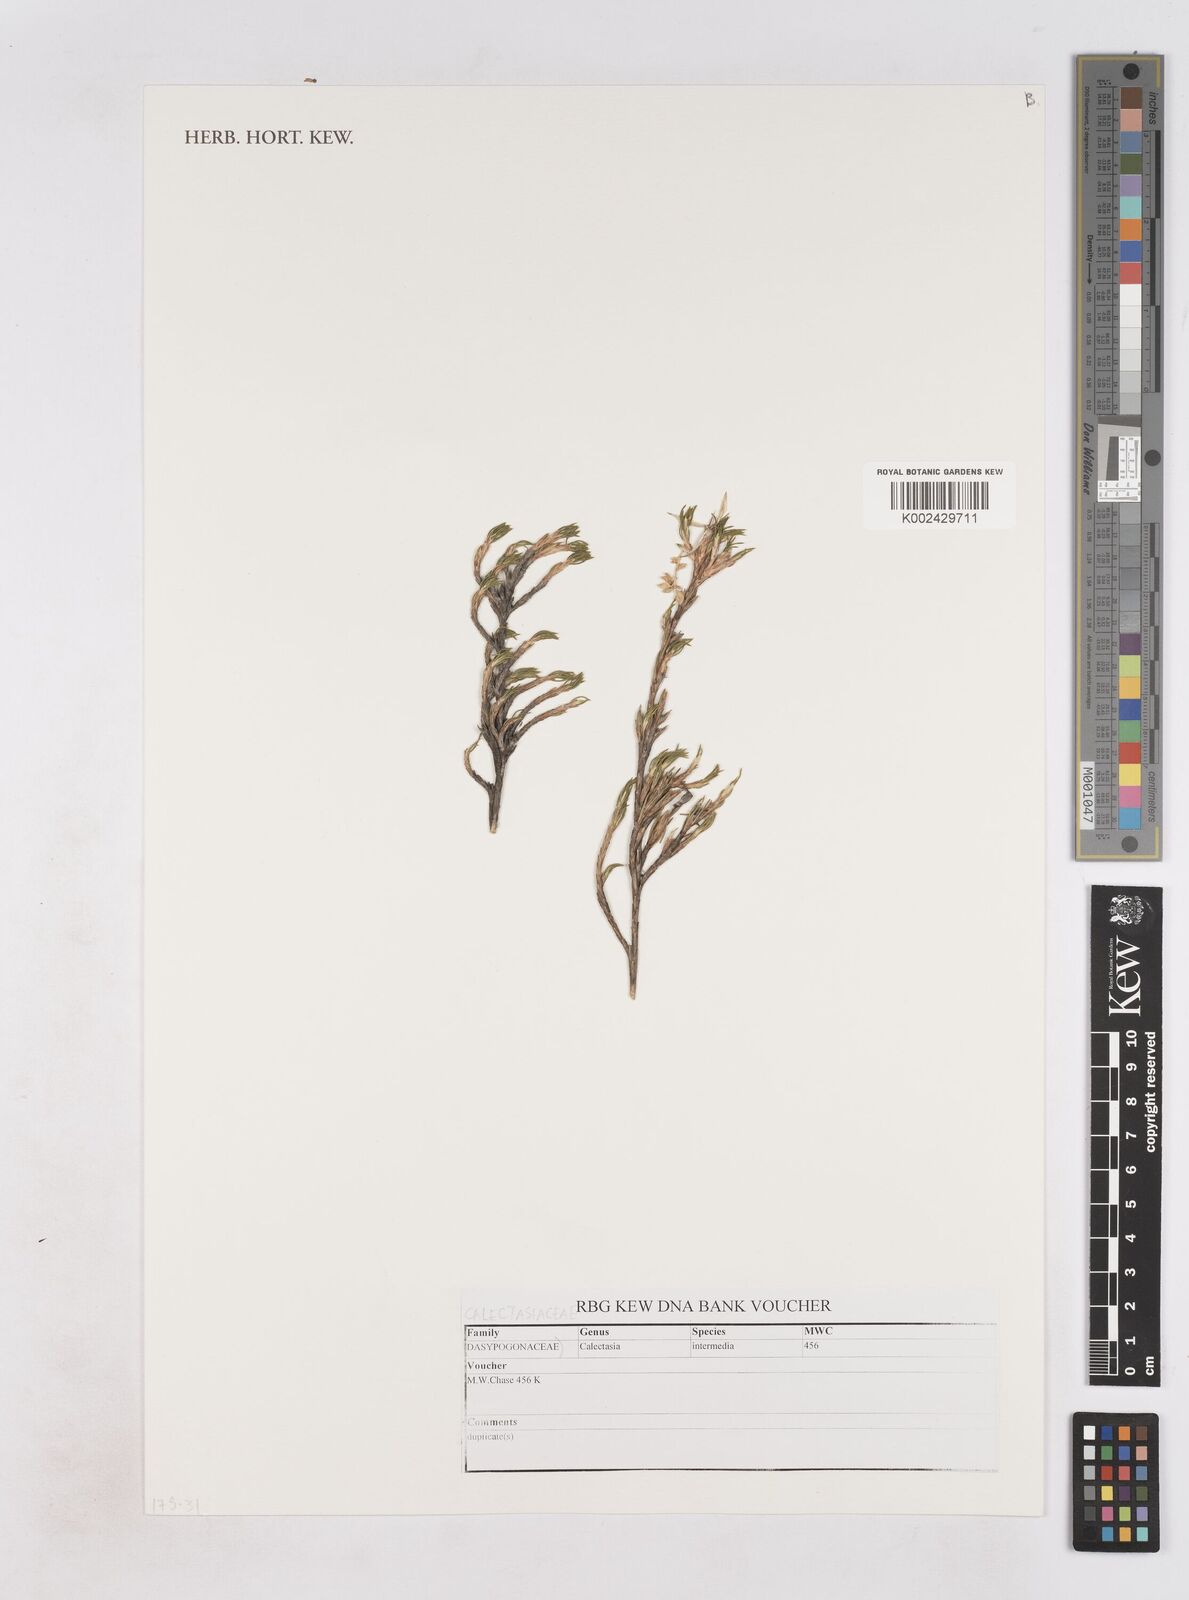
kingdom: Plantae
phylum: Tracheophyta
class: Liliopsida
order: Arecales
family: Dasypogonaceae
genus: Calectasia
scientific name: Calectasia intermedia
